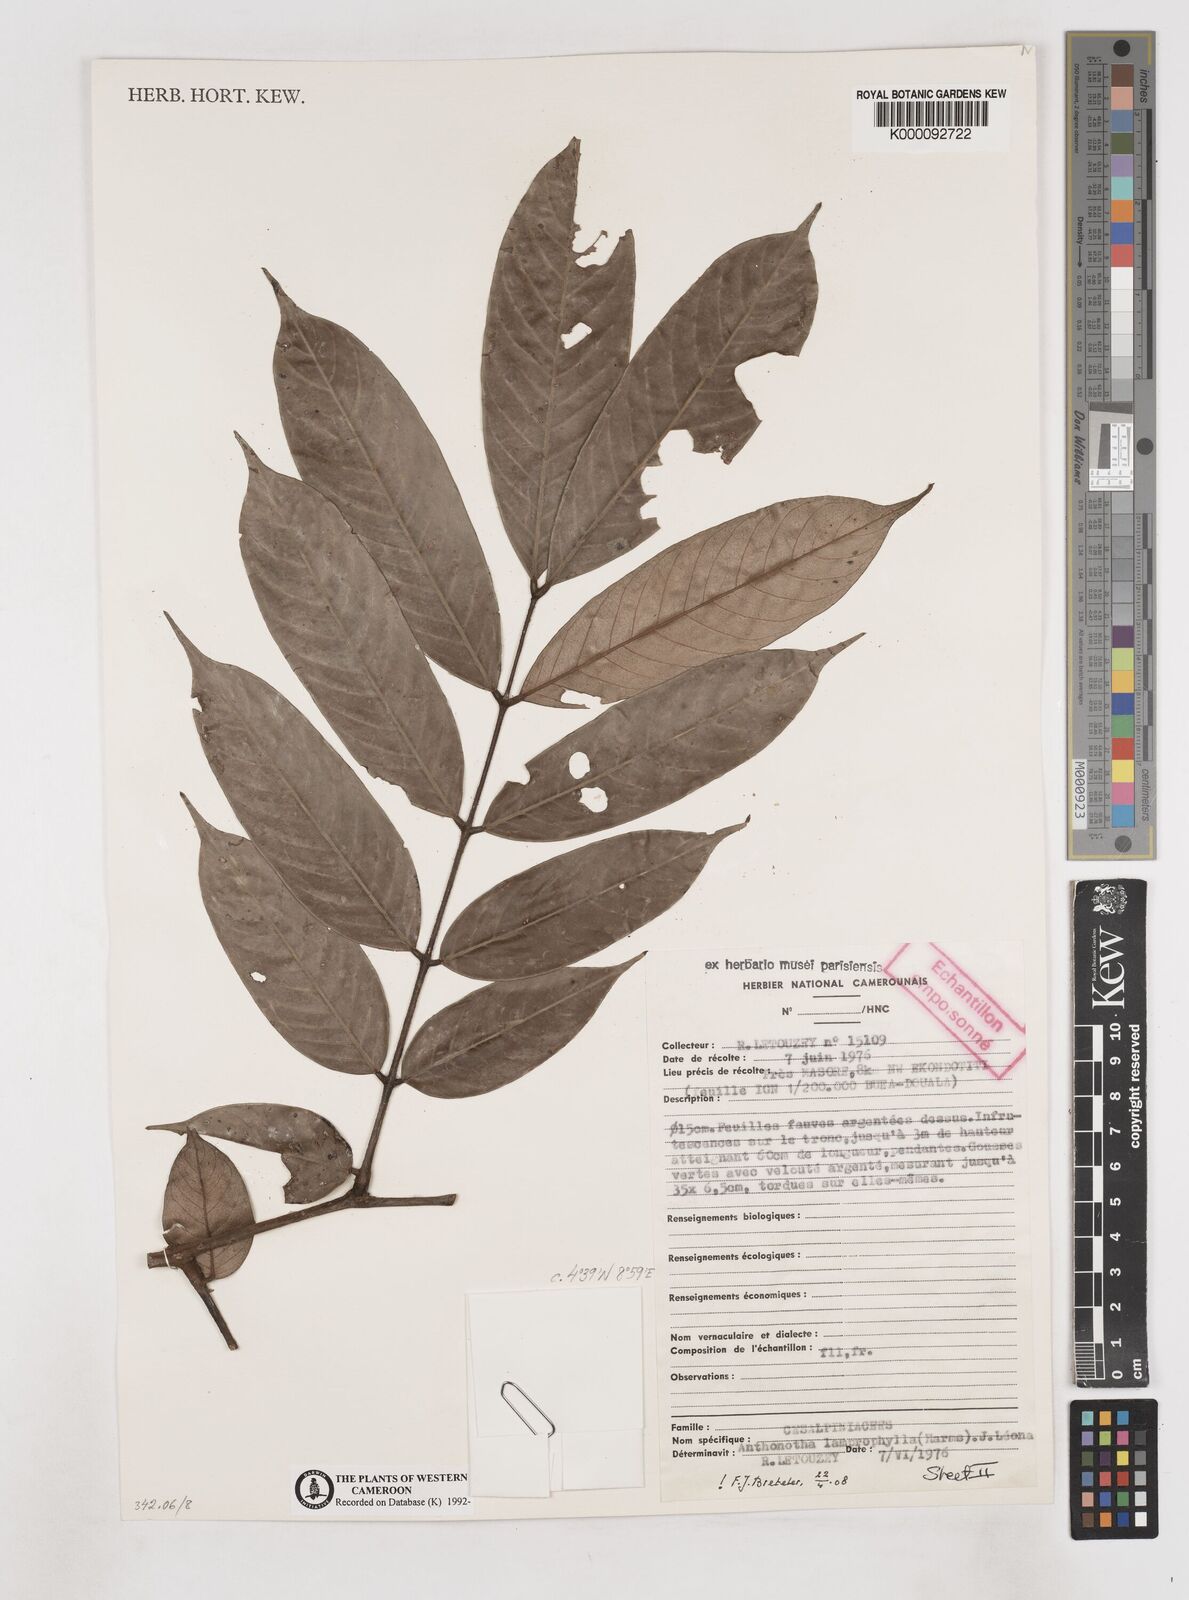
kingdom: Plantae
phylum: Tracheophyta
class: Magnoliopsida
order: Fabales
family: Fabaceae
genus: Anthonotha
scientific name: Anthonotha
